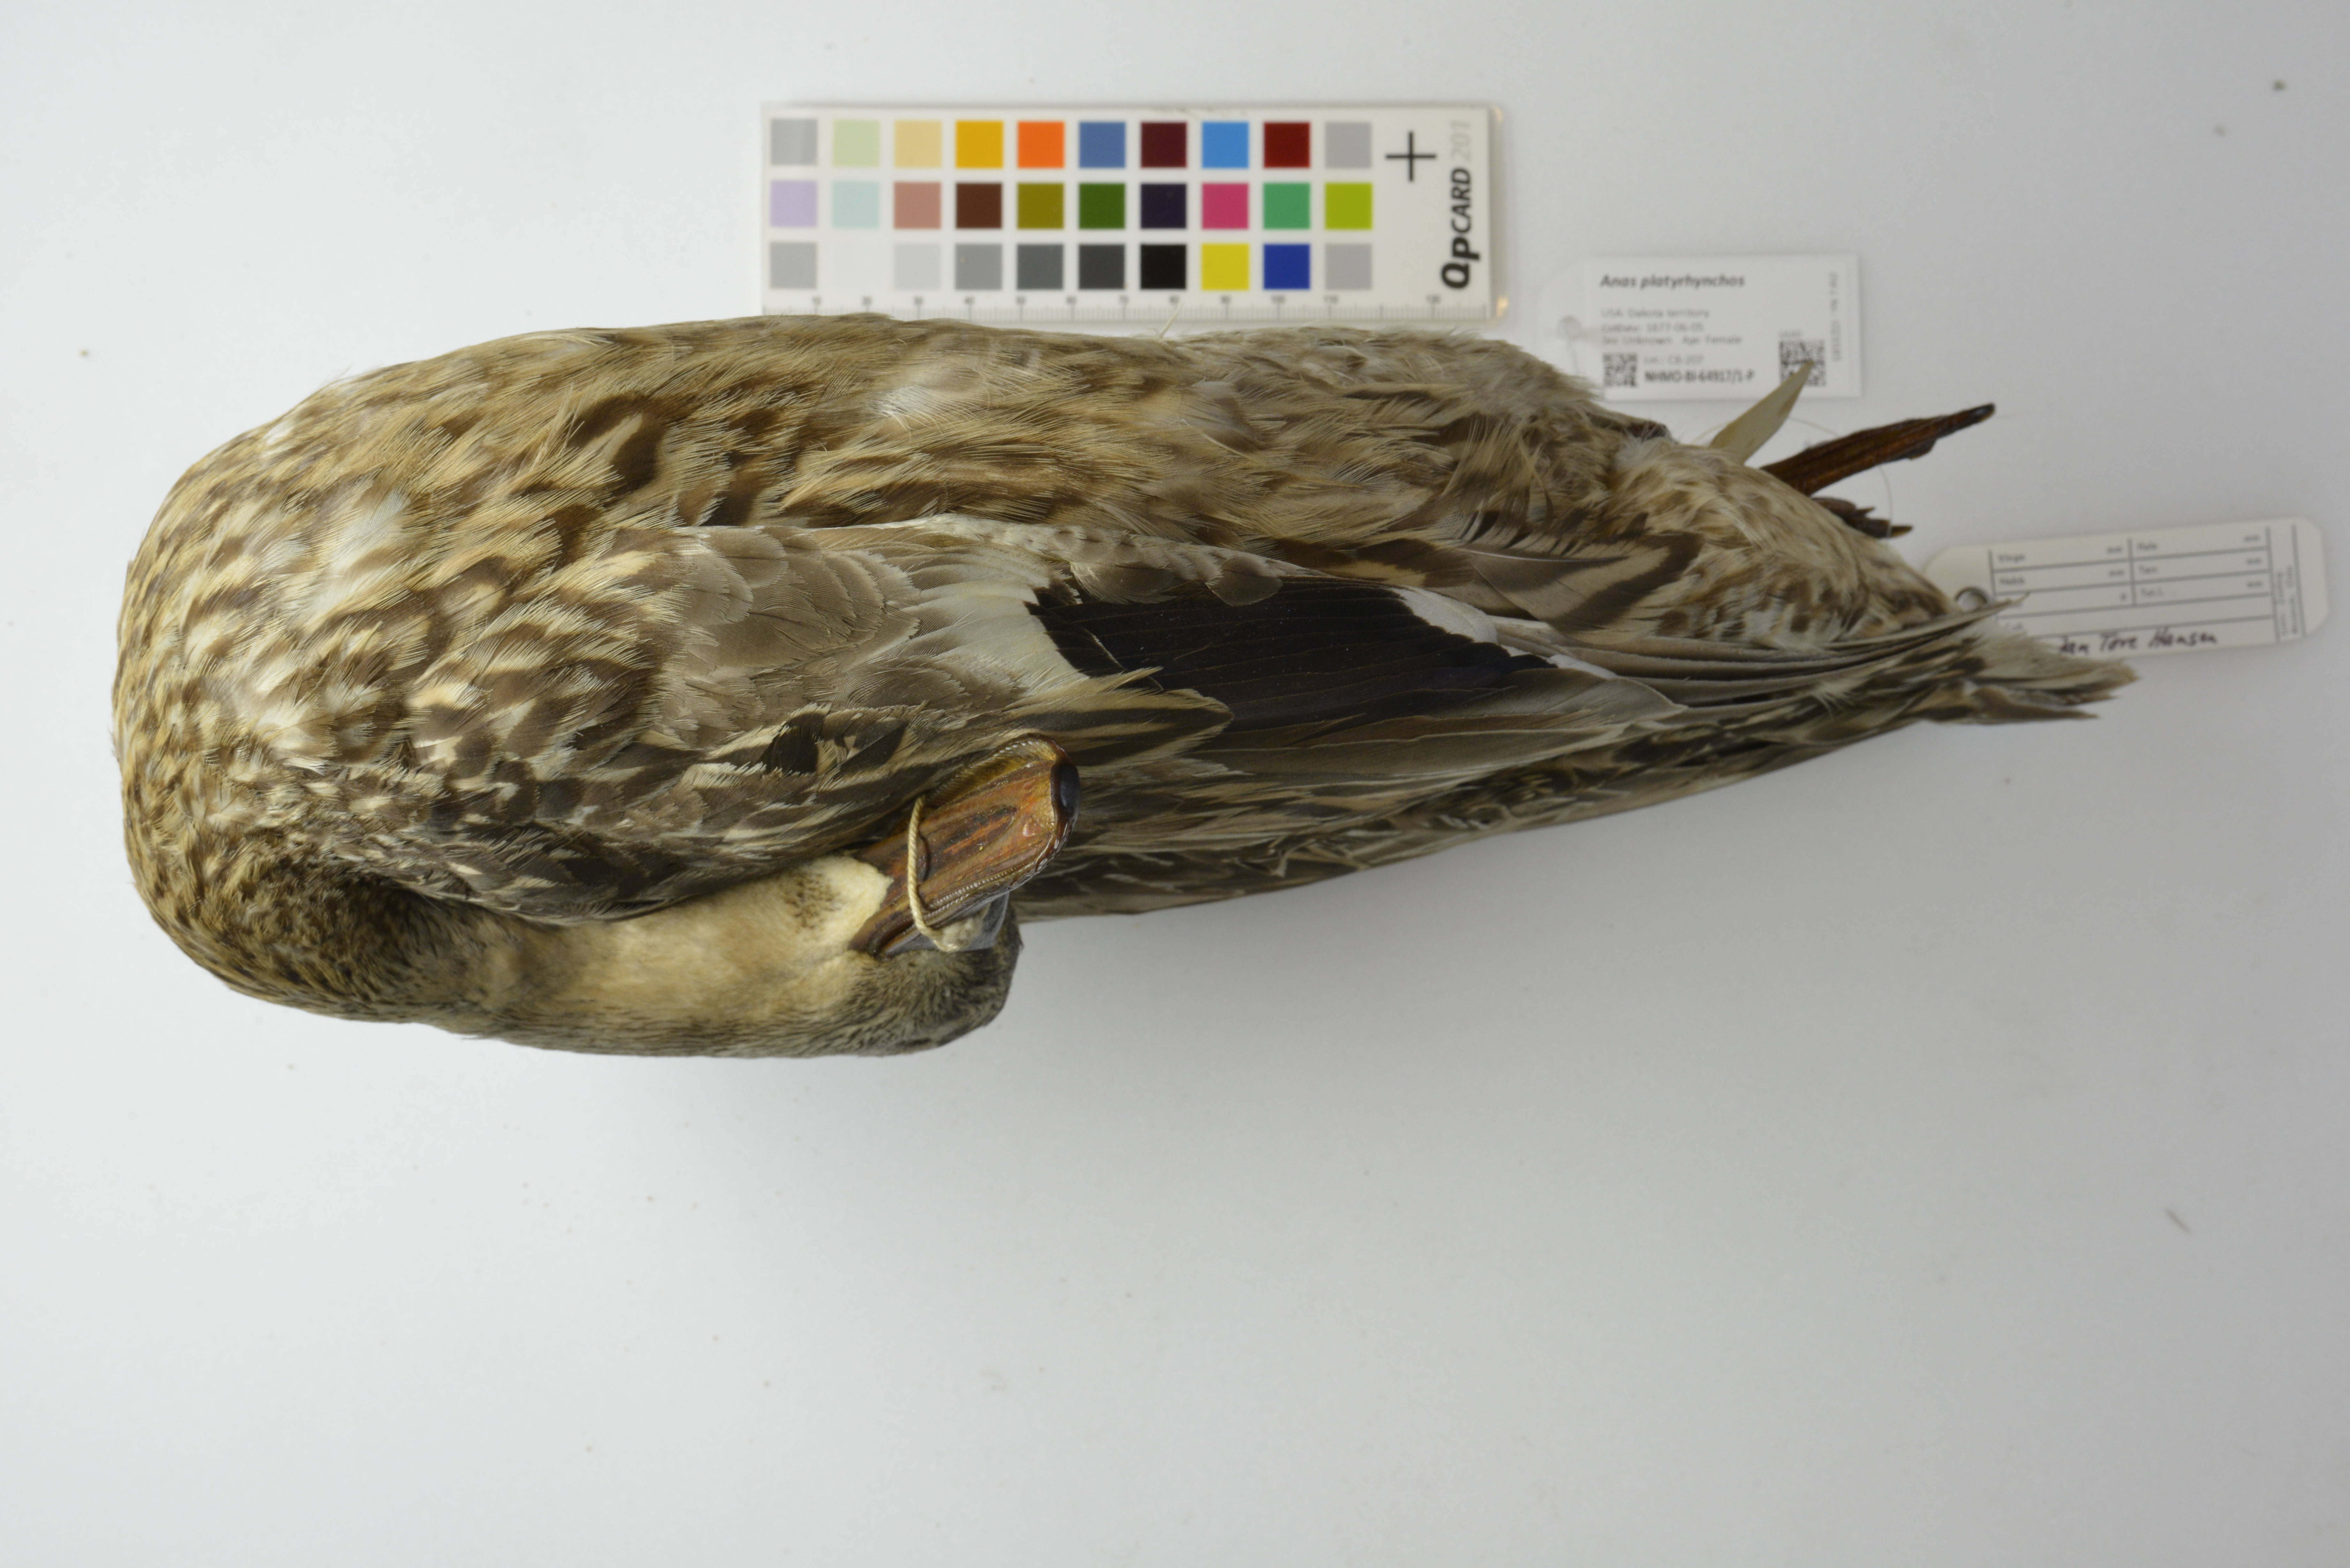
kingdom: Animalia
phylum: Chordata
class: Aves
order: Anseriformes
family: Anatidae
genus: Anas
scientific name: Anas platyrhynchos
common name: Mallard
